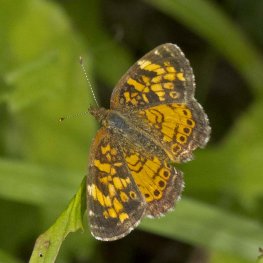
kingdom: Animalia
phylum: Arthropoda
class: Insecta
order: Lepidoptera
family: Nymphalidae
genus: Phyciodes
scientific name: Phyciodes tharos
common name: Northern Crescent
